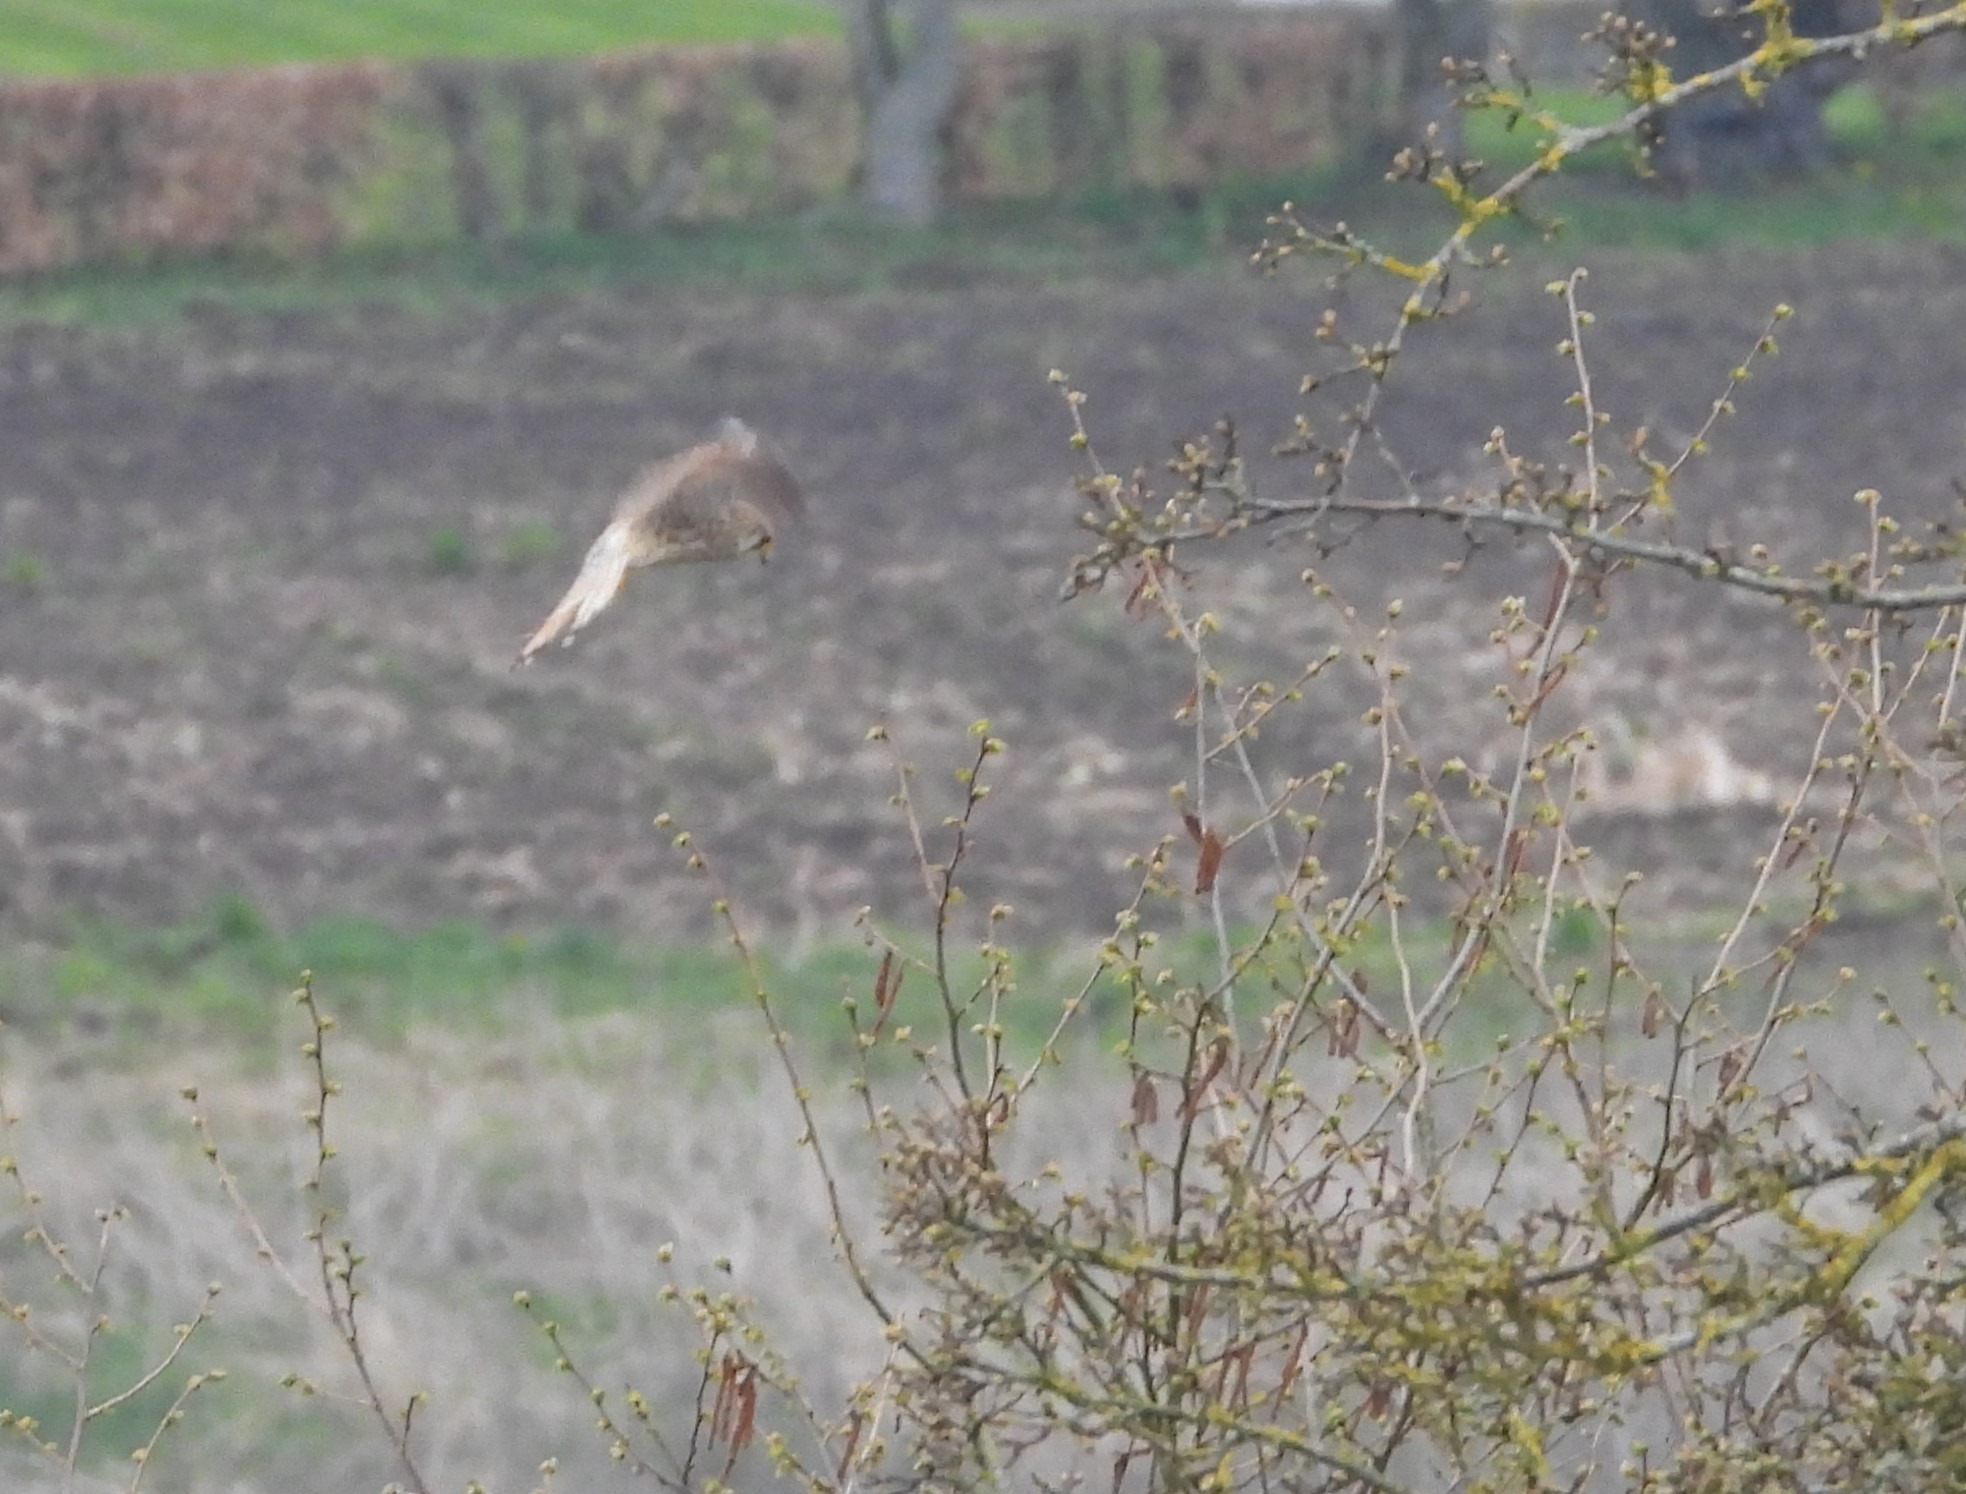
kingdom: Animalia
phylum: Chordata
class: Aves
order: Falconiformes
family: Falconidae
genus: Falco
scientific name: Falco tinnunculus
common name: Tårnfalk
